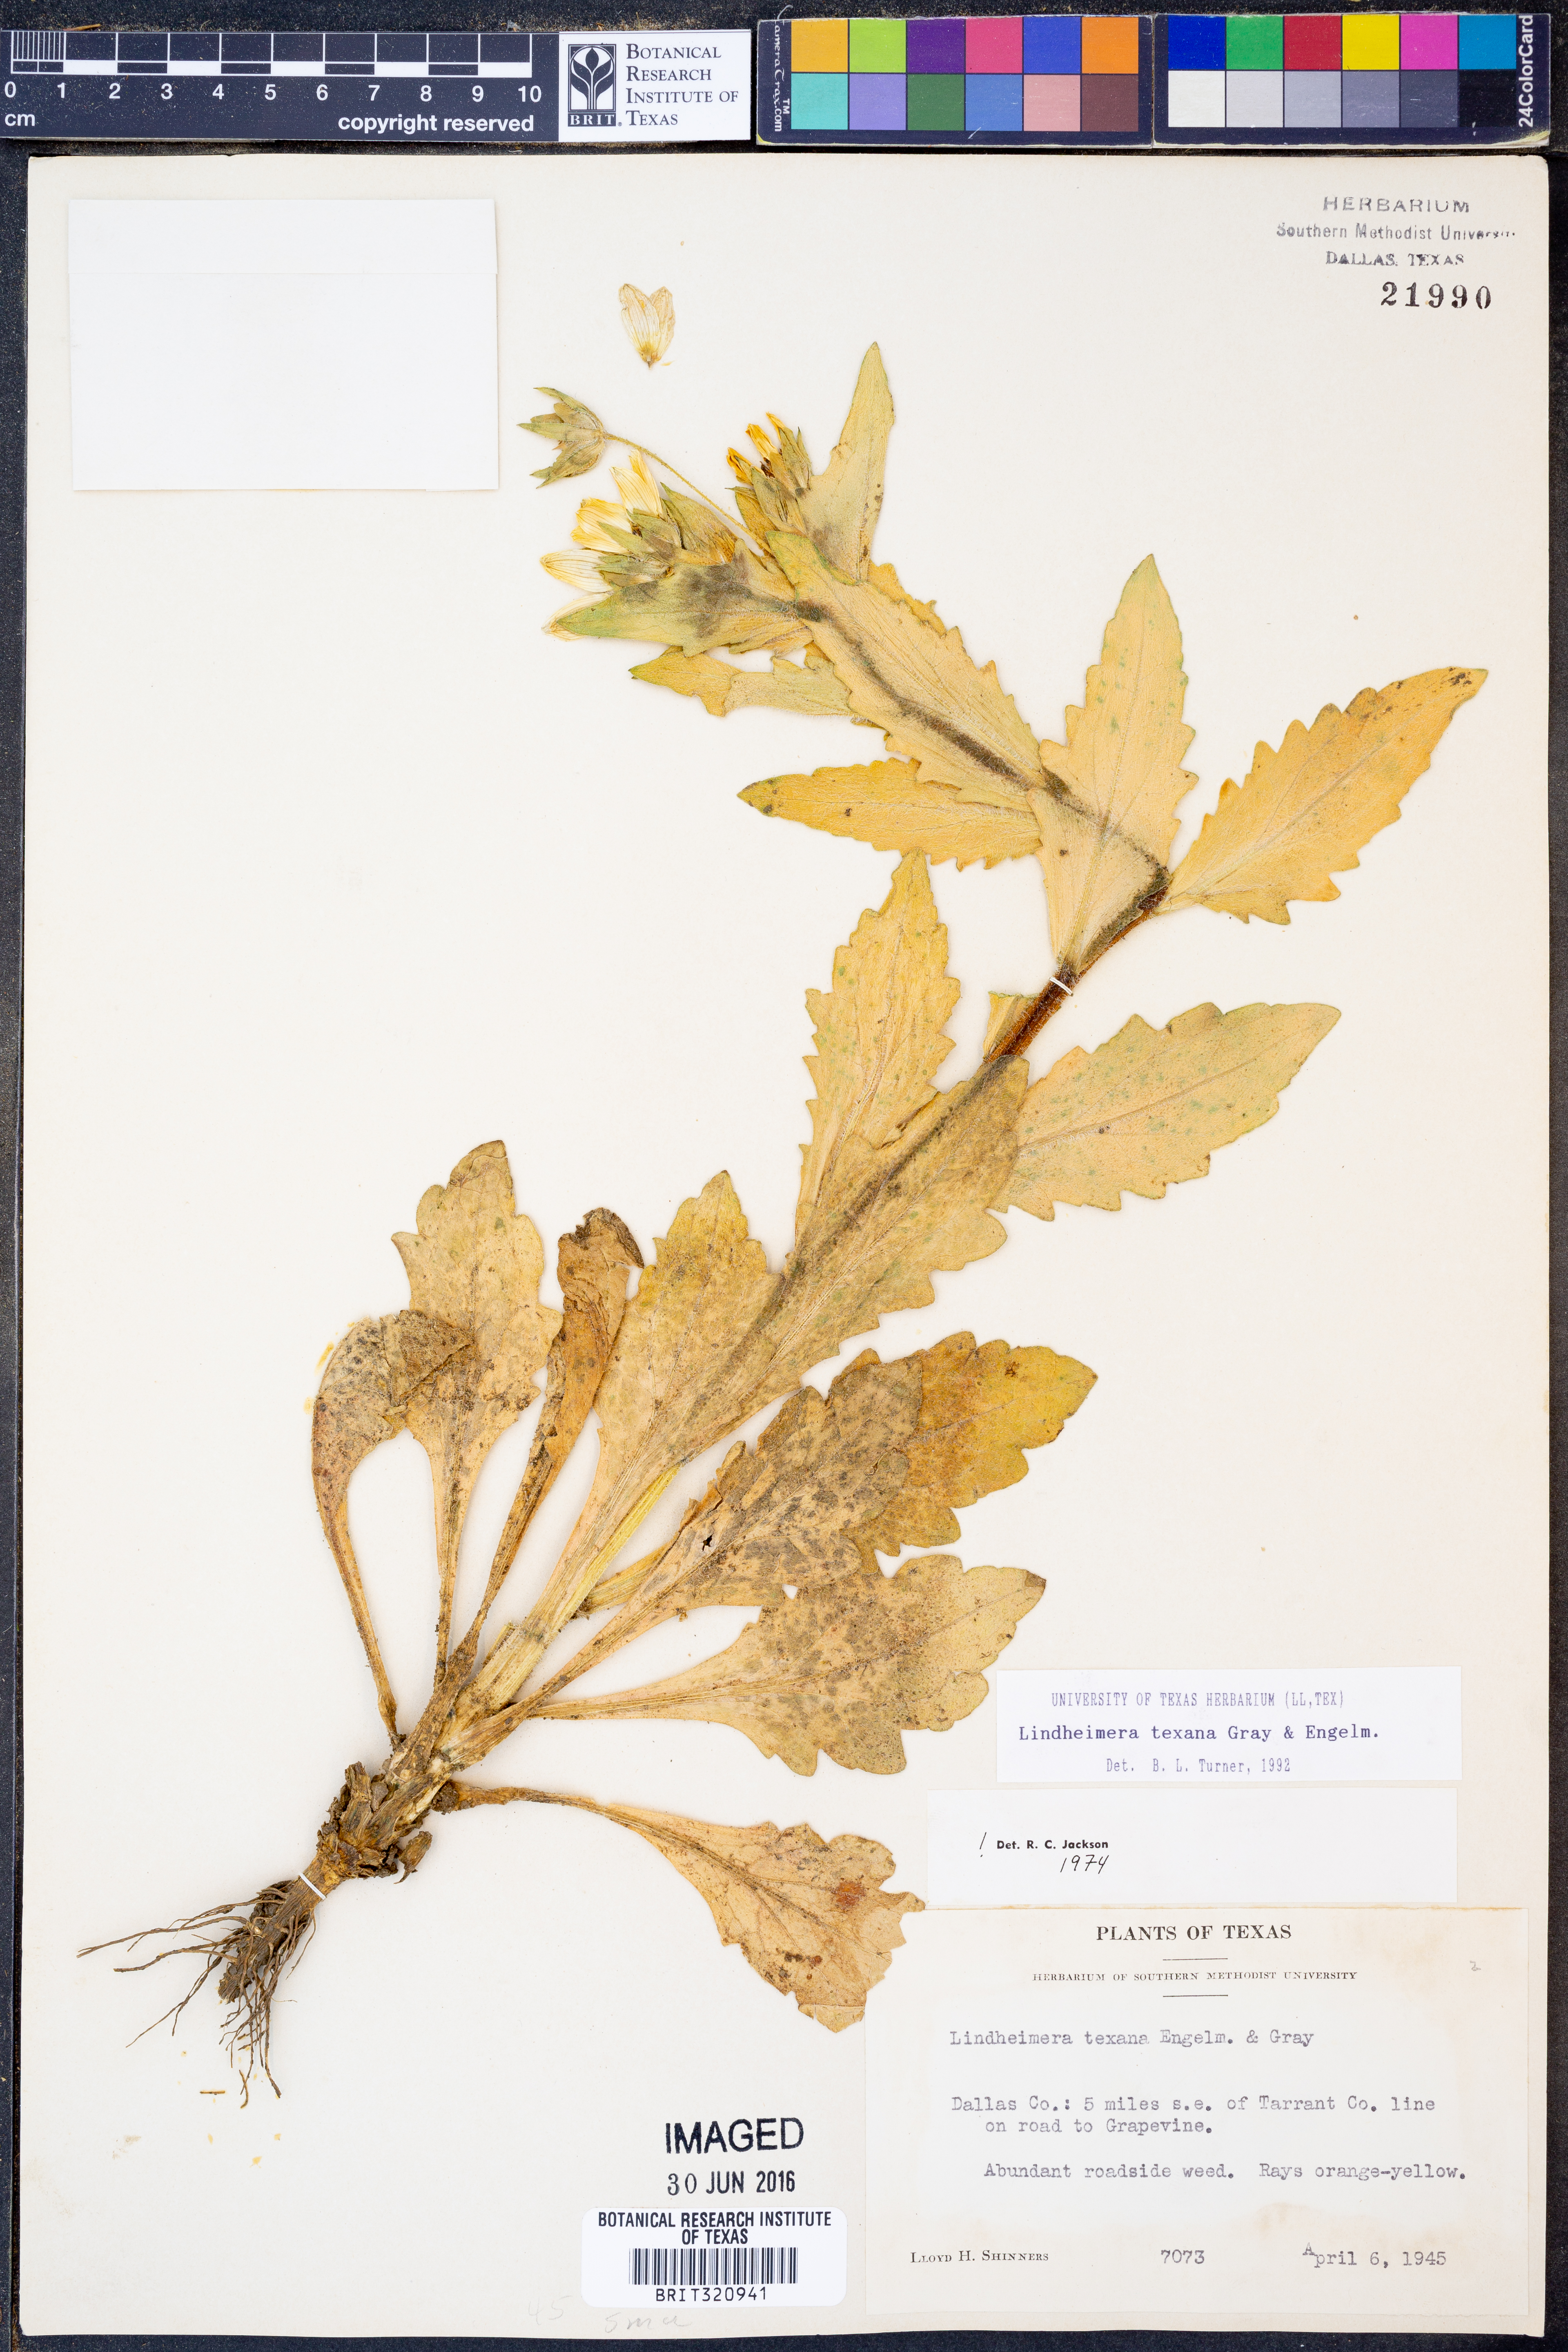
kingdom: Plantae
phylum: Tracheophyta
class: Magnoliopsida
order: Asterales
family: Asteraceae
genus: Lindheimera
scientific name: Lindheimera texana
